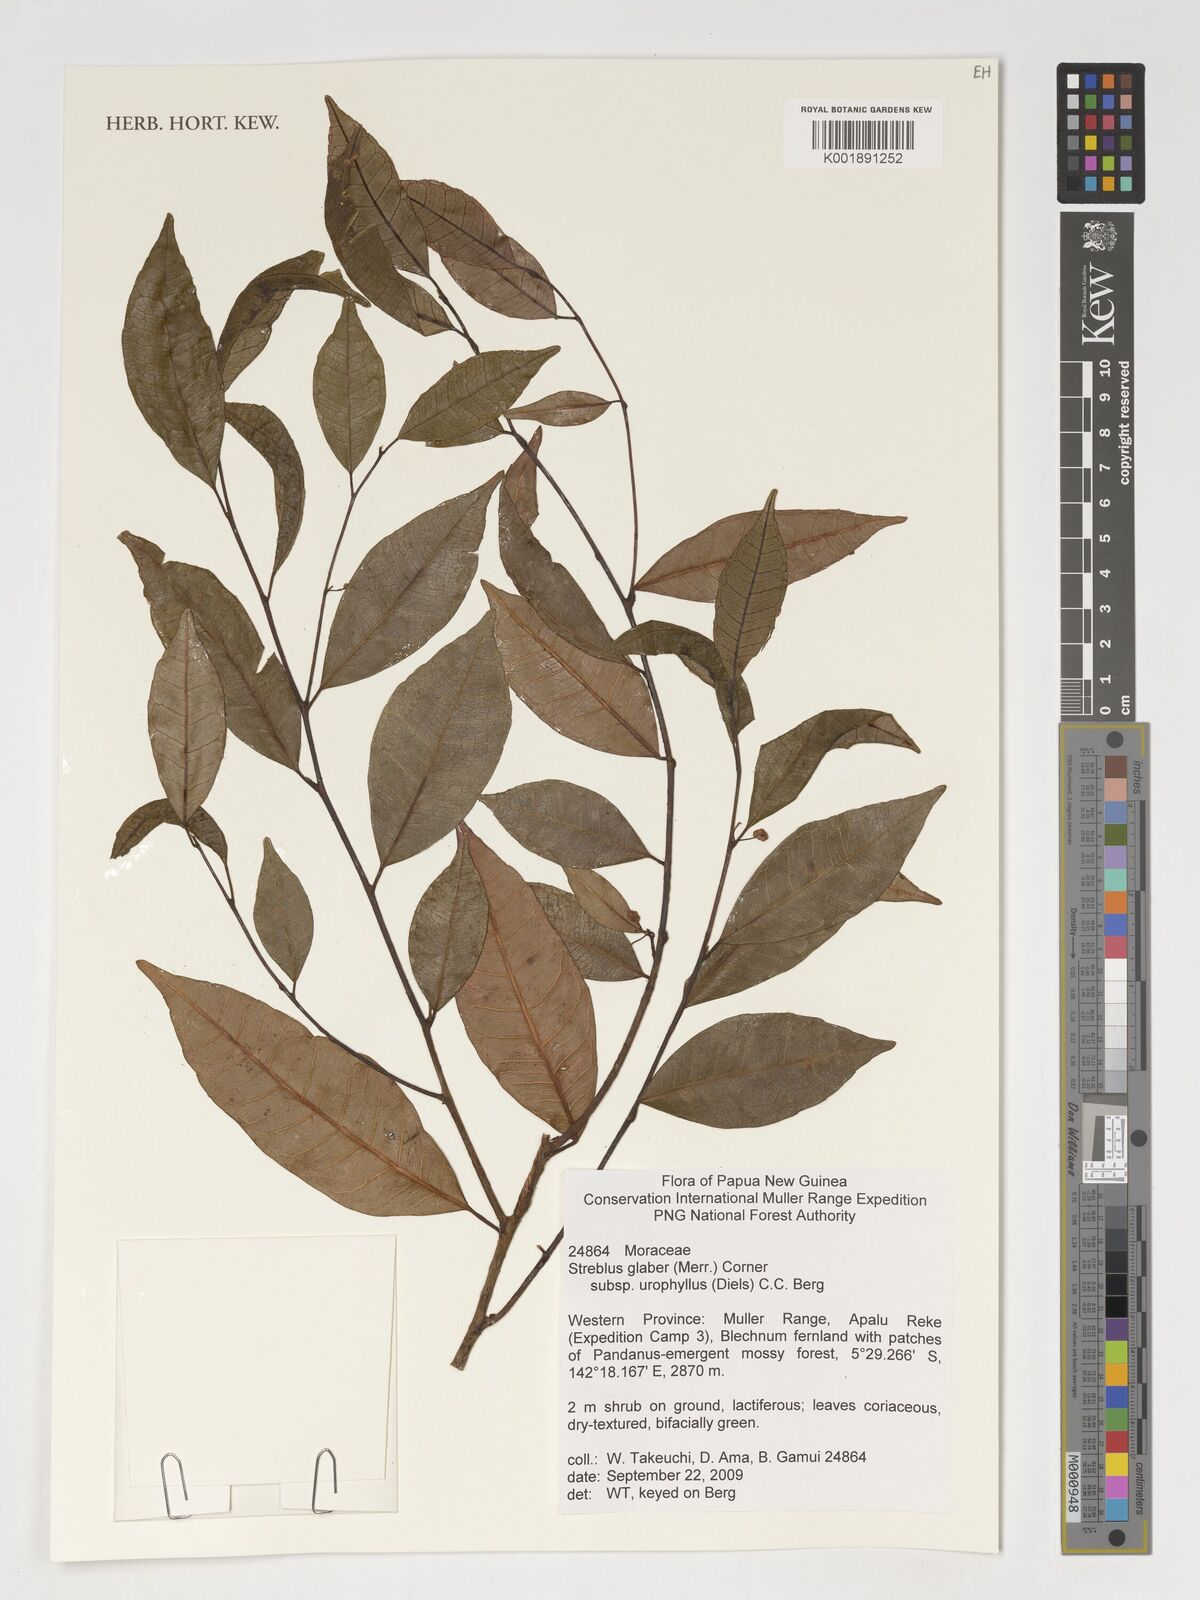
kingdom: Plantae
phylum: Tracheophyta
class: Magnoliopsida
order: Rosales
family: Moraceae
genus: Paratrophis
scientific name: Paratrophis glabra
